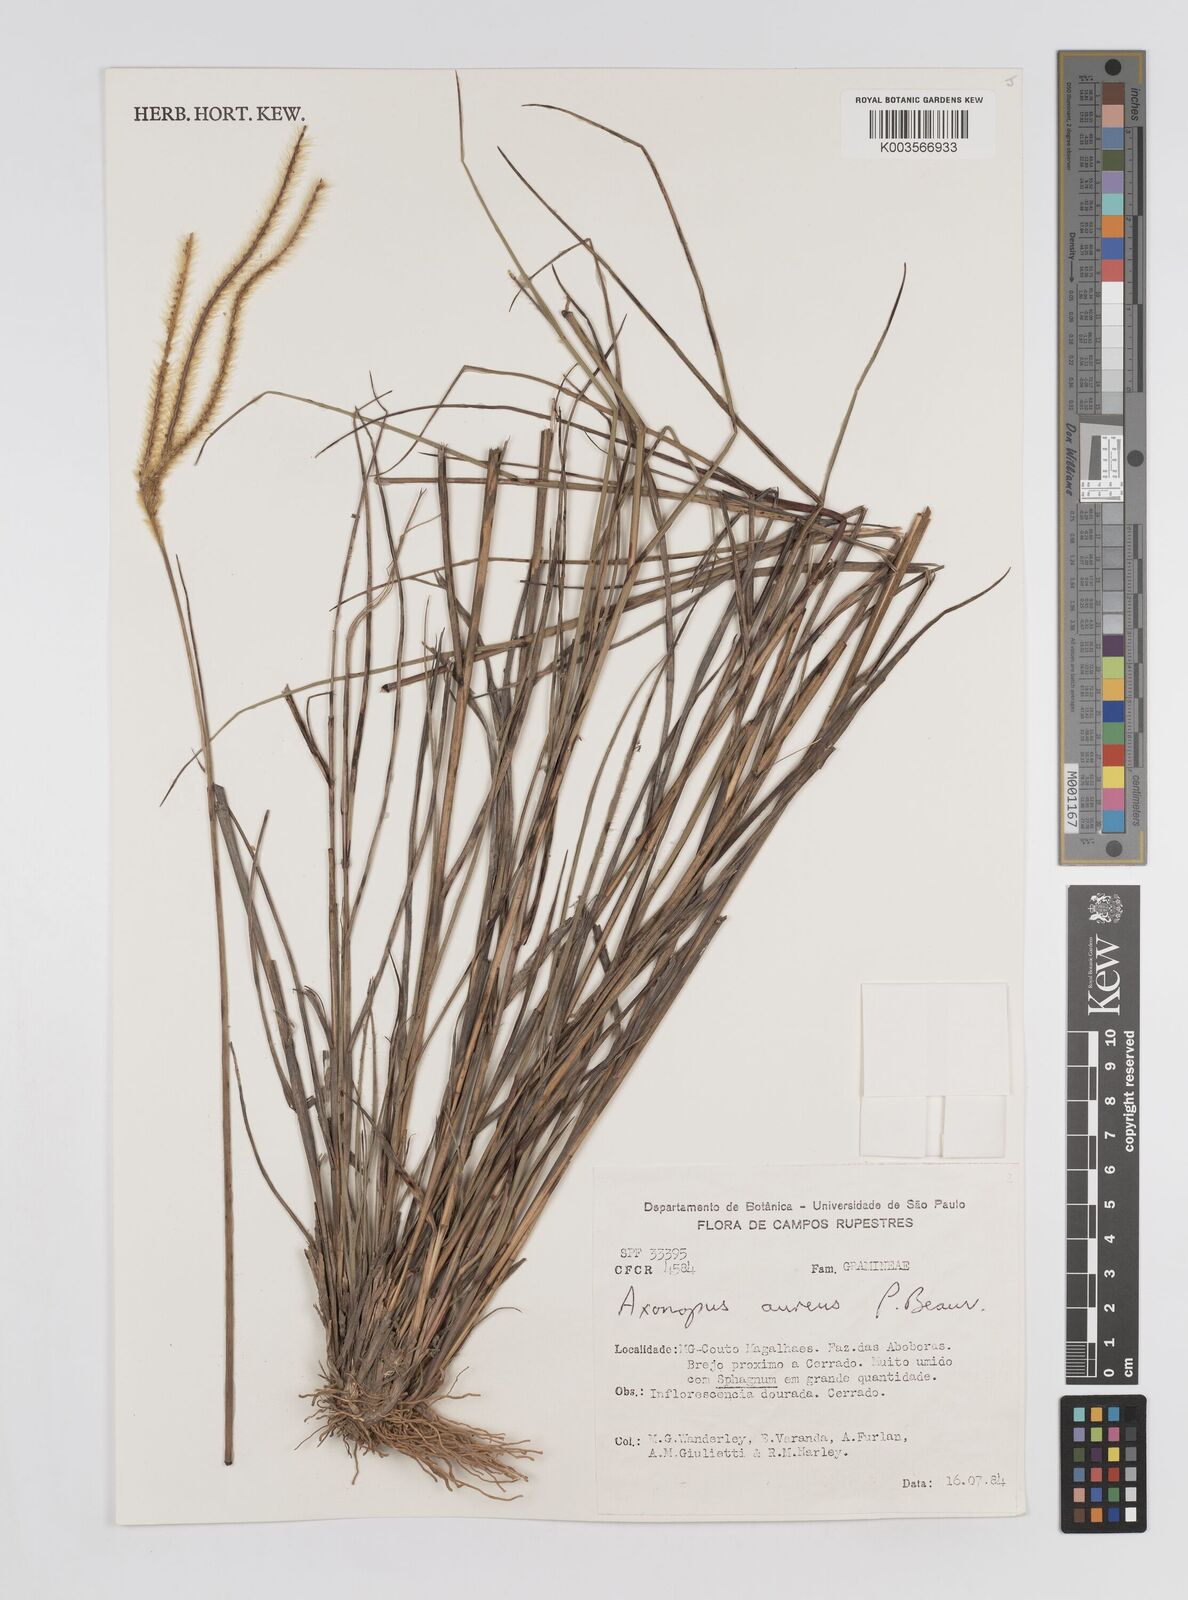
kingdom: Plantae
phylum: Tracheophyta
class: Liliopsida
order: Poales
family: Poaceae
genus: Axonopus
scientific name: Axonopus aureus
